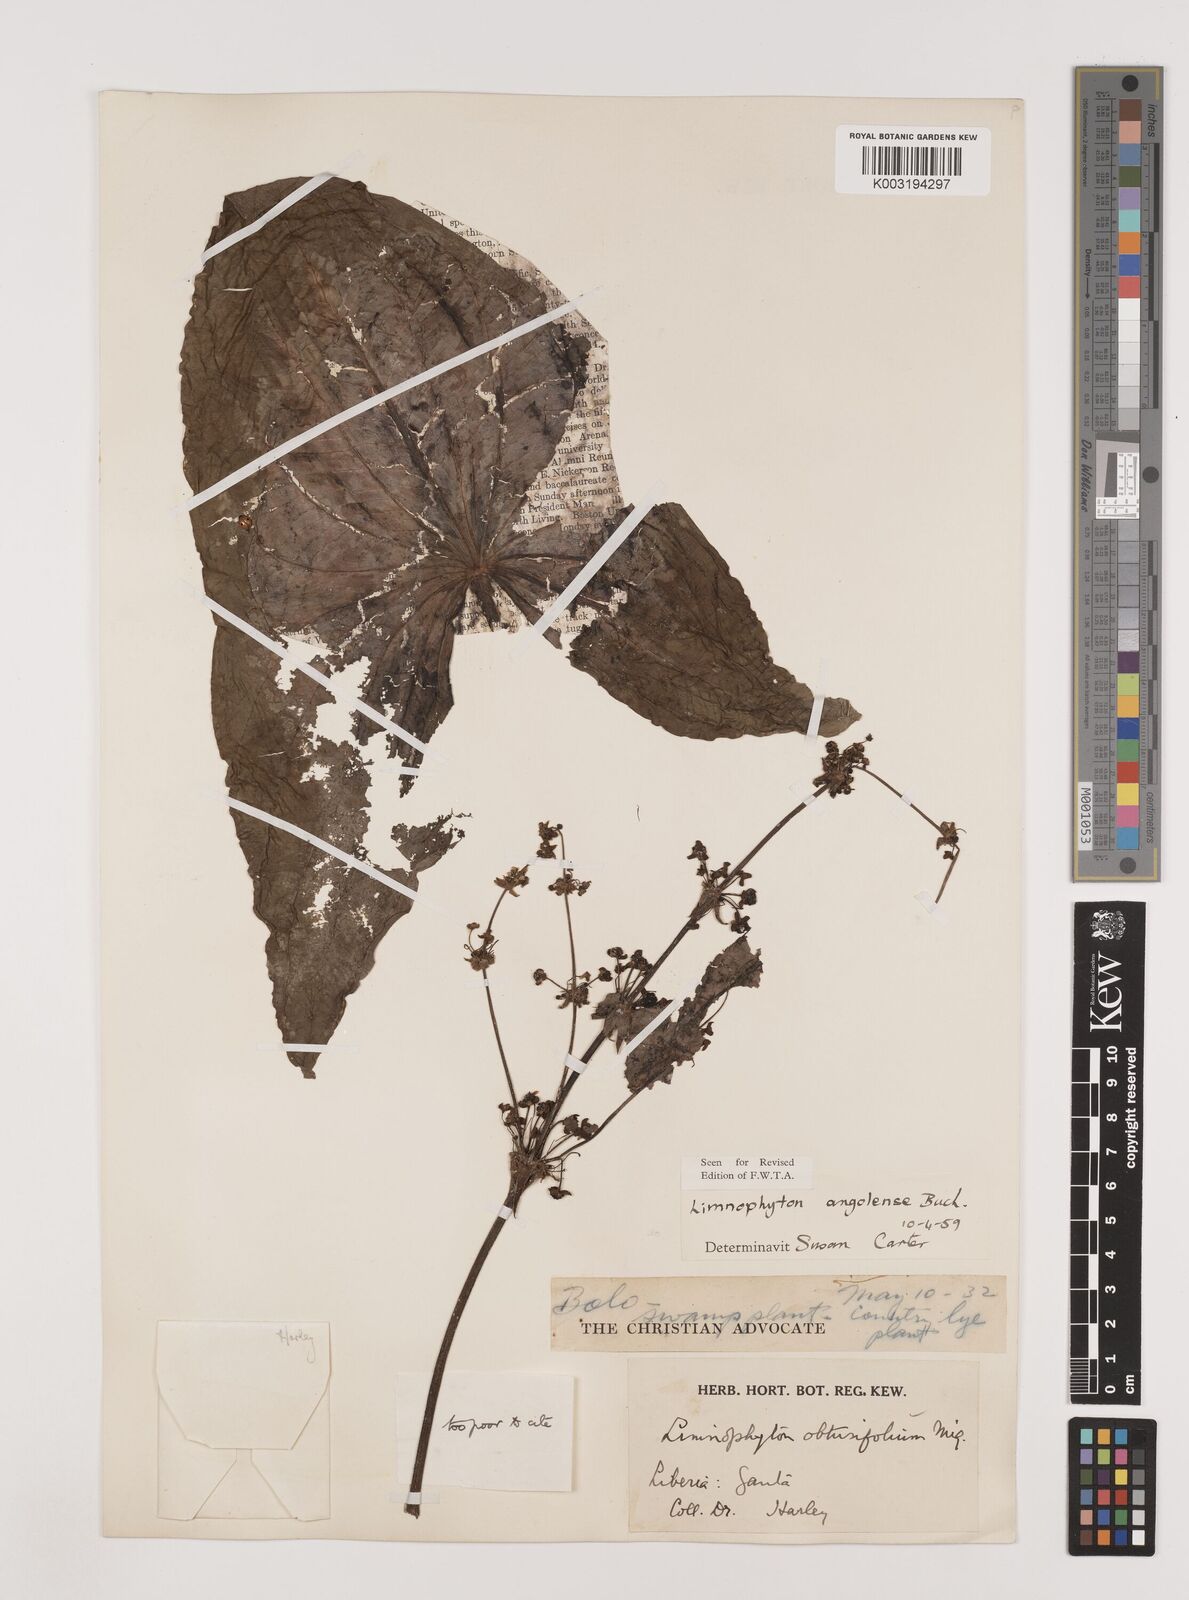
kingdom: Plantae
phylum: Tracheophyta
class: Liliopsida
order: Alismatales
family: Alismataceae
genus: Limnophyton
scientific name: Limnophyton angolense
